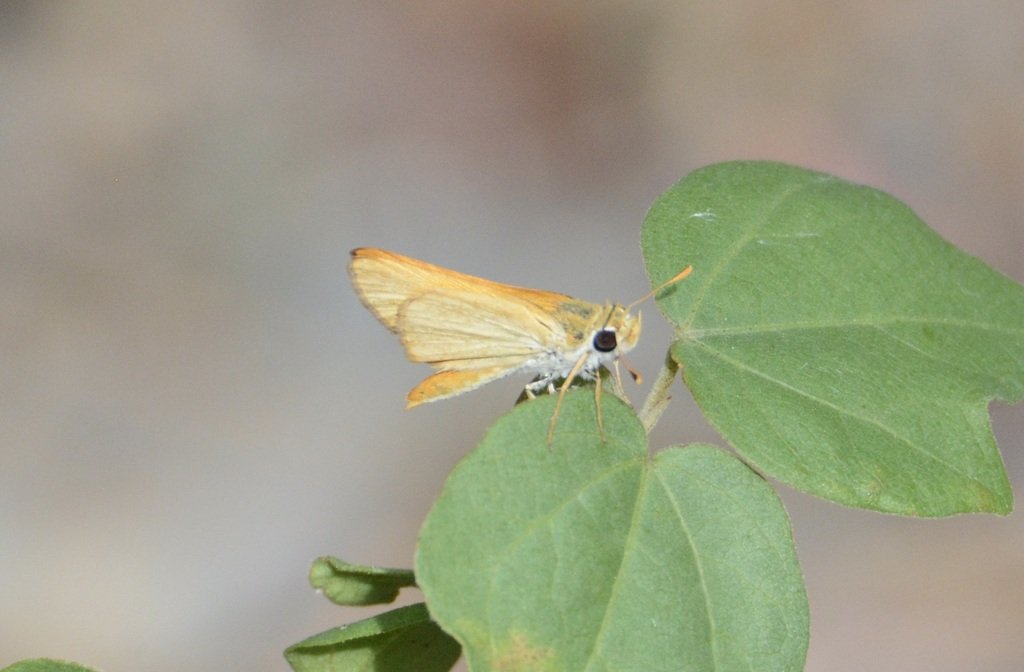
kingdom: Animalia
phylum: Arthropoda
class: Insecta
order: Lepidoptera
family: Hesperiidae
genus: Copaeodes
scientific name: Copaeodes aurantiaca
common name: Orange Skipperling
